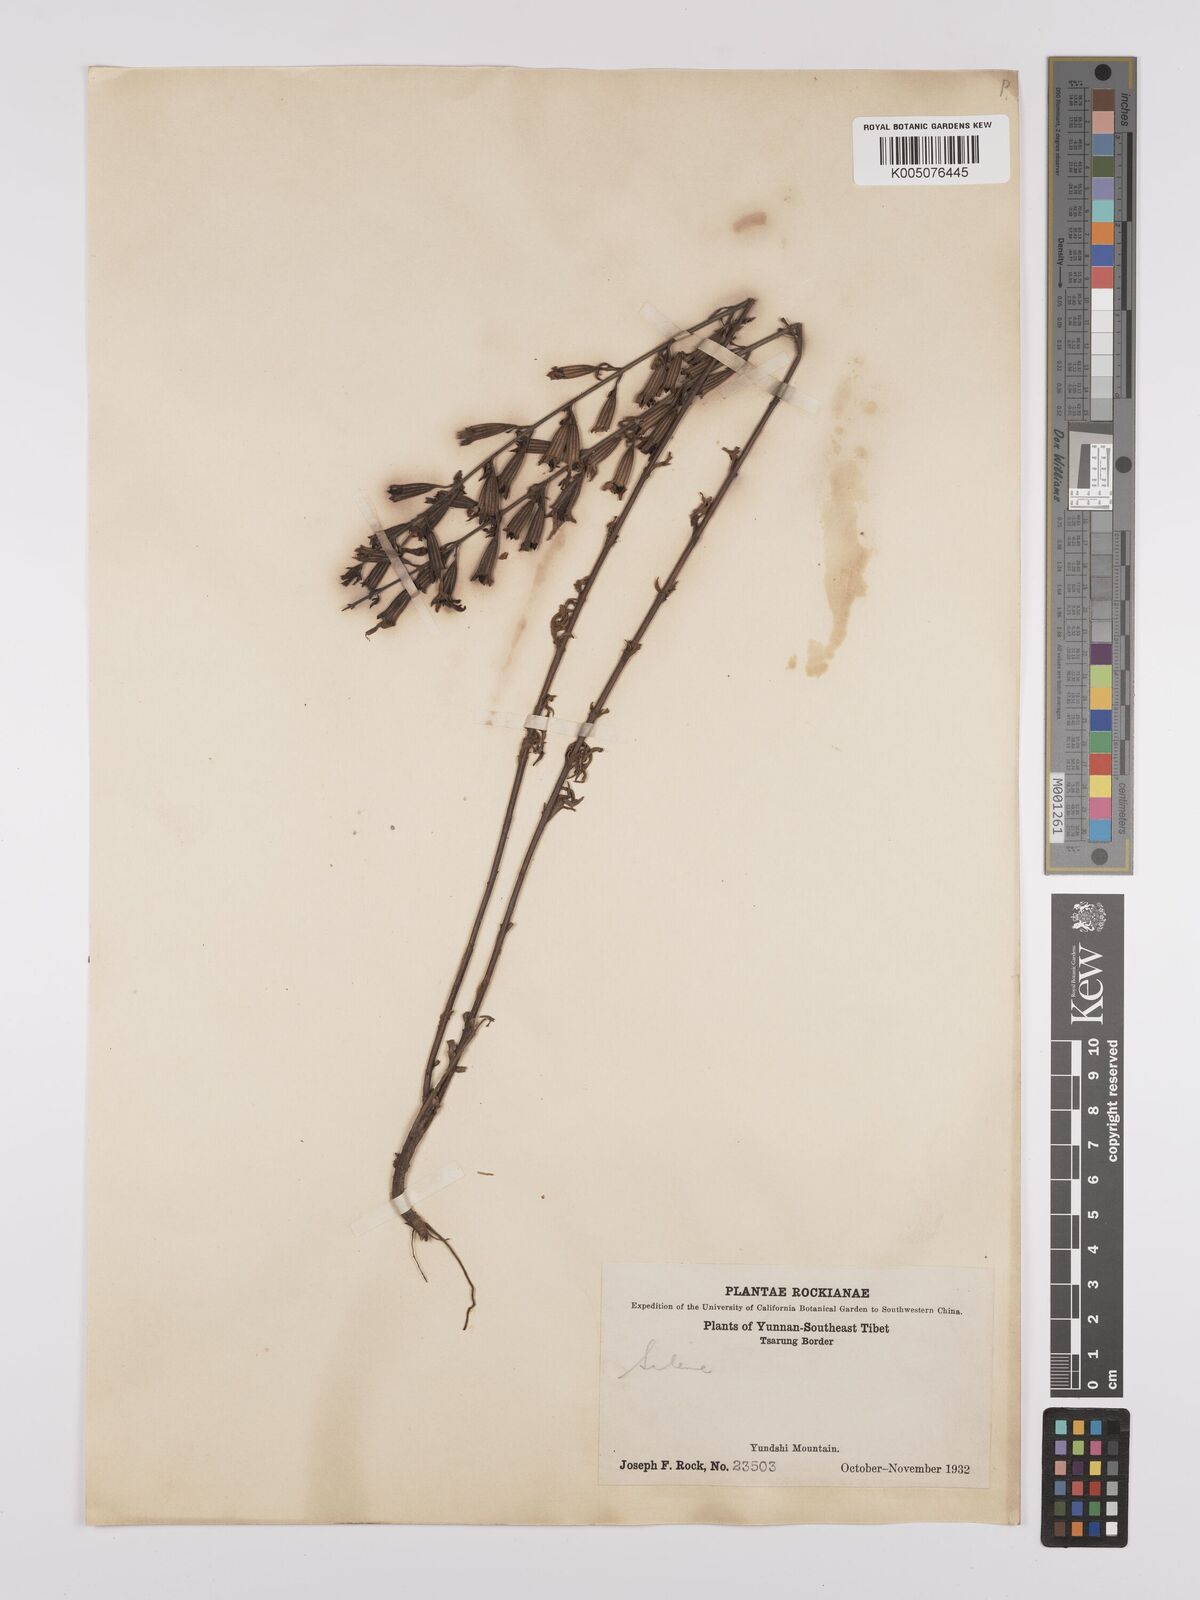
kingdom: Plantae
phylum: Tracheophyta
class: Magnoliopsida
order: Caryophyllales
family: Caryophyllaceae
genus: Silene
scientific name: Silene
